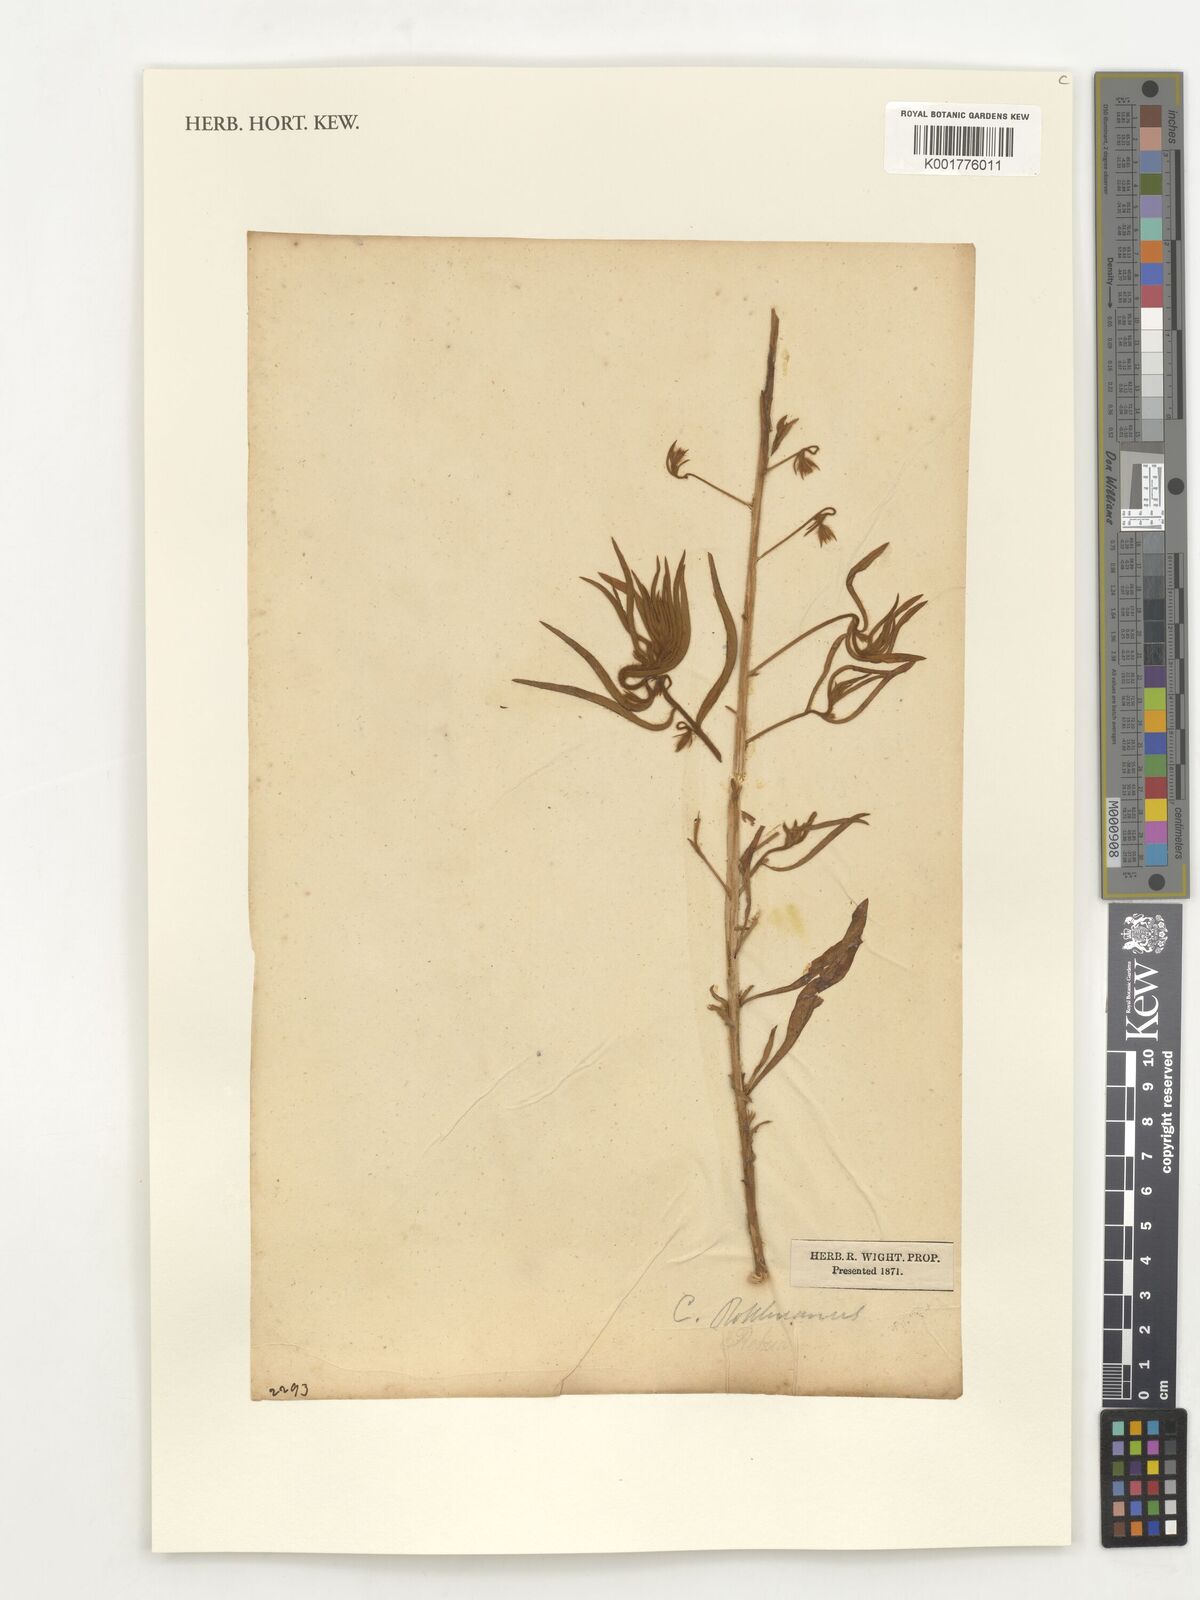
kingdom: Plantae
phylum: Tracheophyta
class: Magnoliopsida
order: Solanales
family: Convolvulaceae
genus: Convolvulus
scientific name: Convolvulus rottlerianus
